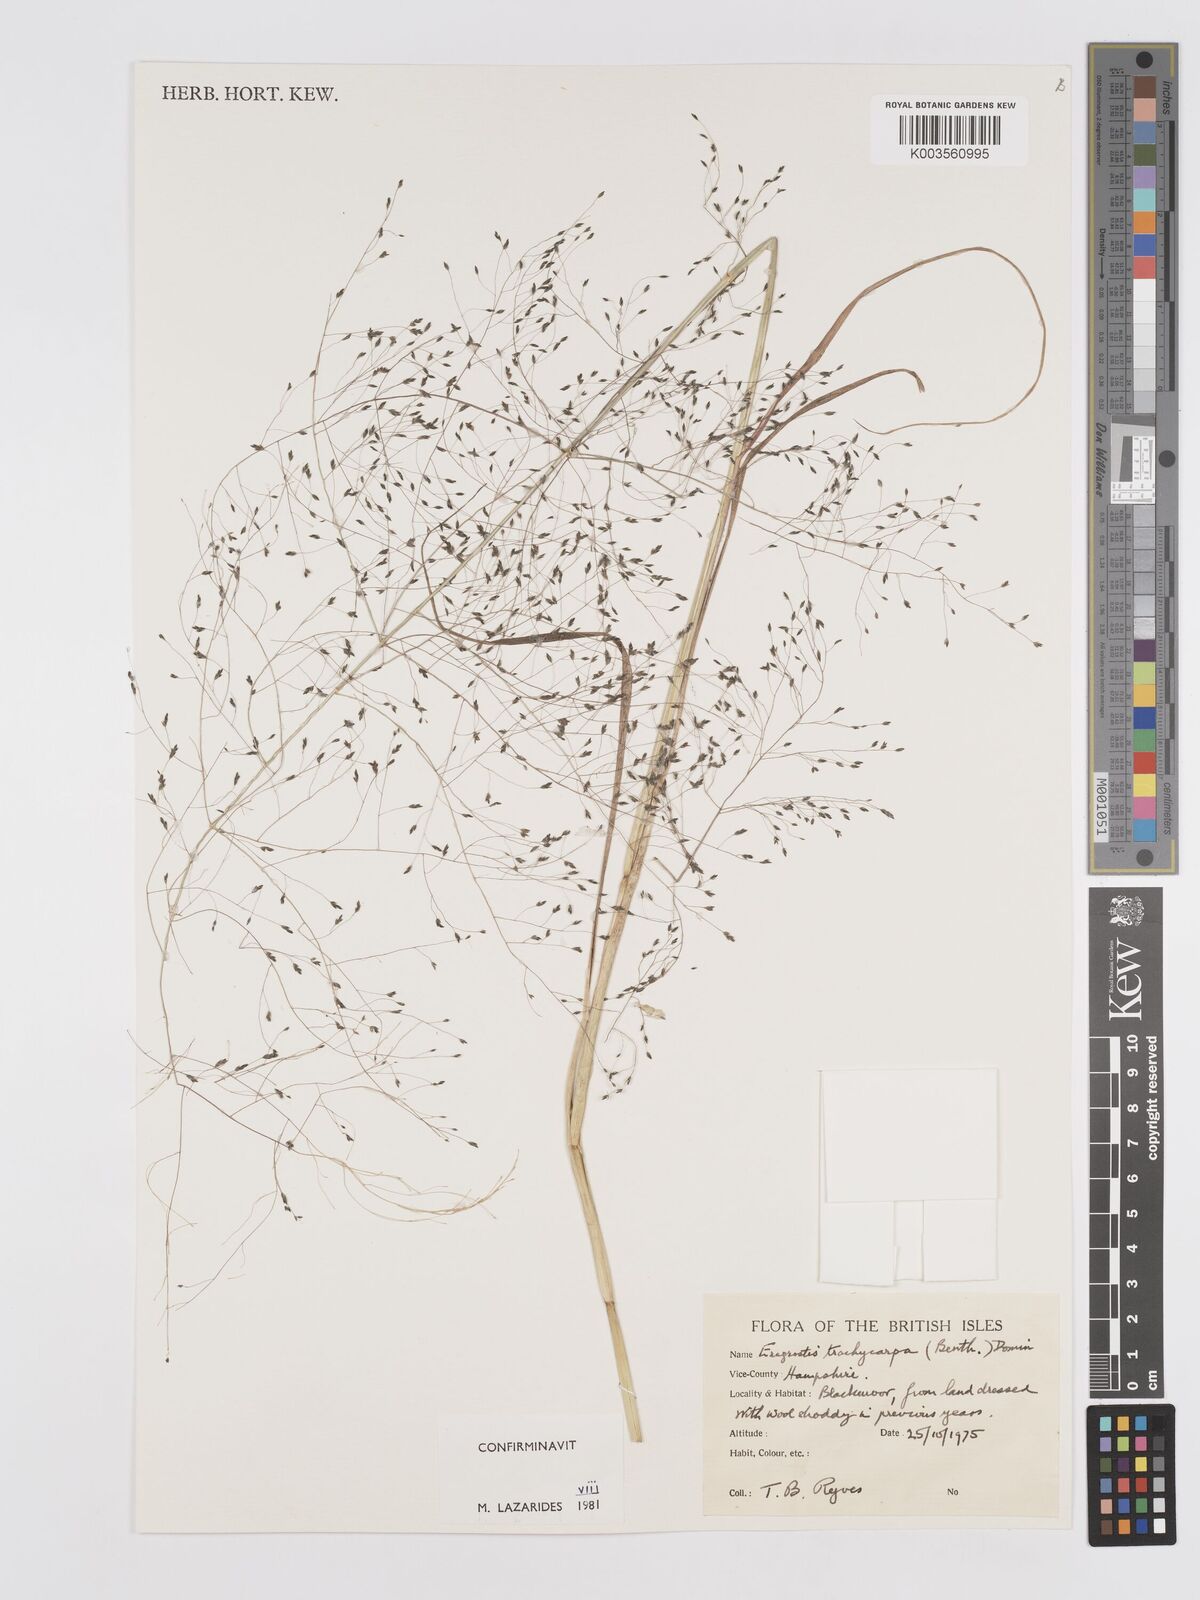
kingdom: Plantae
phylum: Tracheophyta
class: Liliopsida
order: Poales
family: Poaceae
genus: Eragrostis
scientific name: Eragrostis trachycarpa
